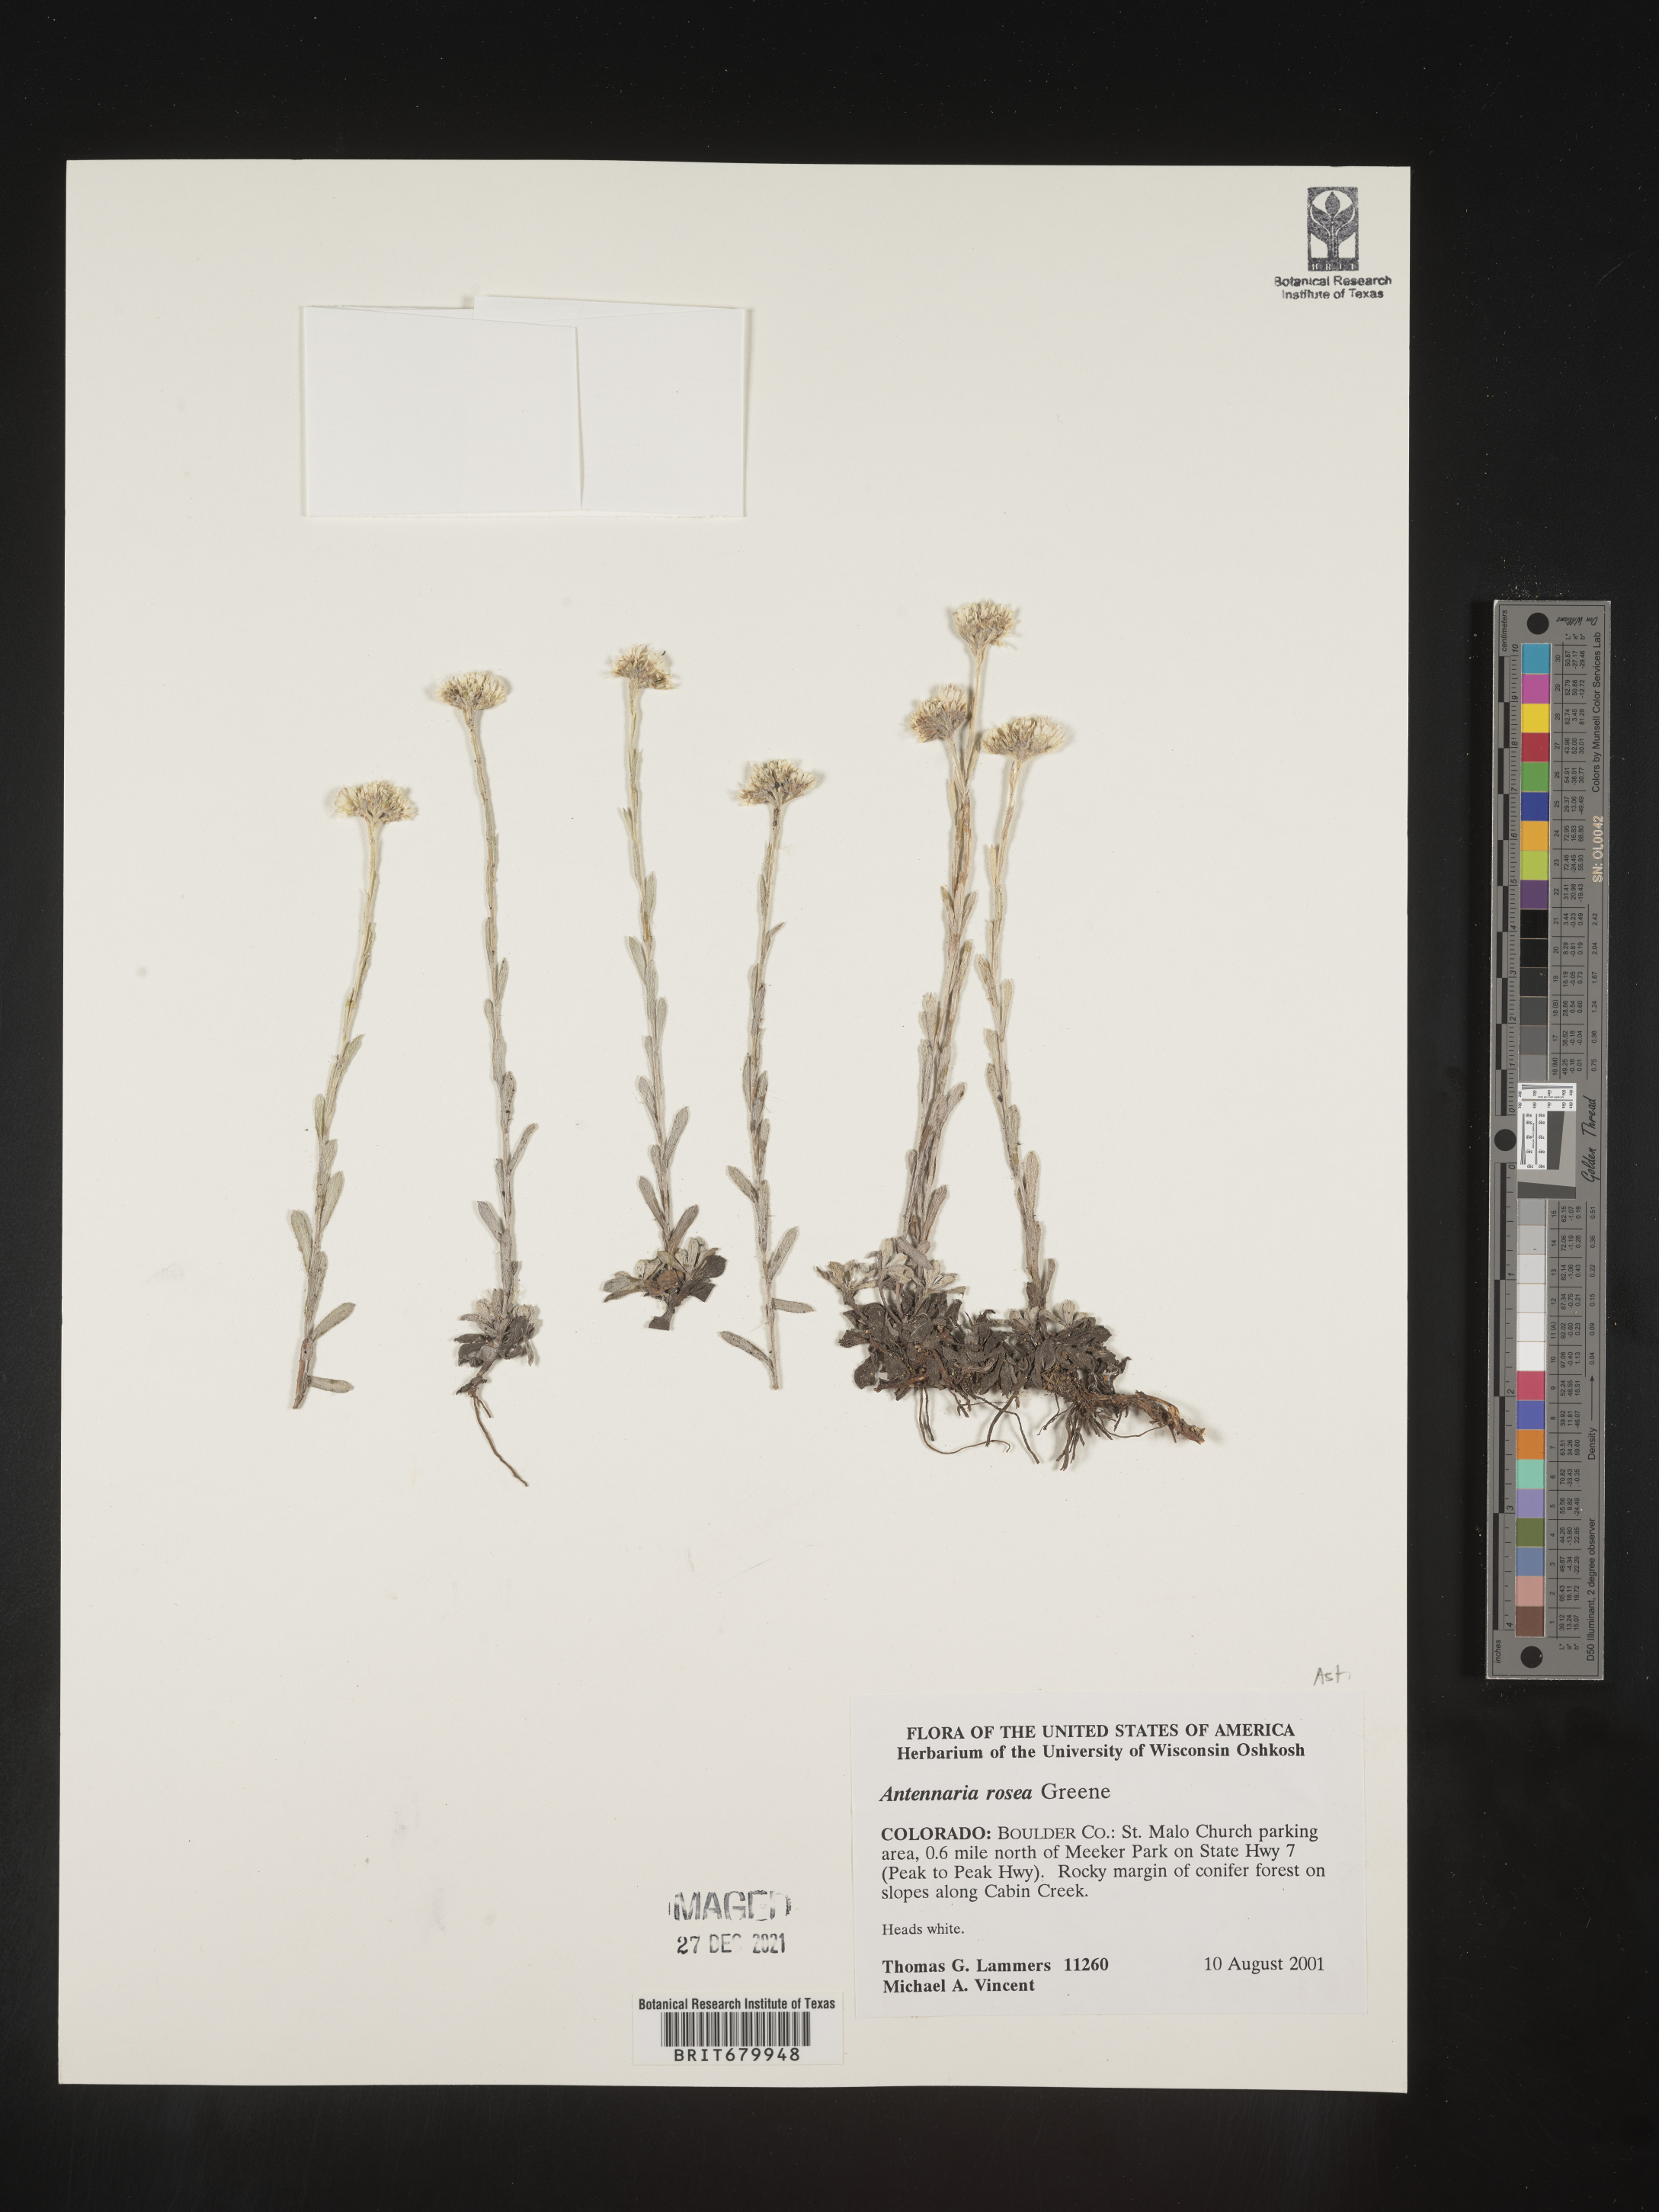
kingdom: Plantae
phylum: Tracheophyta
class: Magnoliopsida
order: Asterales
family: Asteraceae
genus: Antennaria
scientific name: Antennaria rosea
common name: Rosy pussytoes
